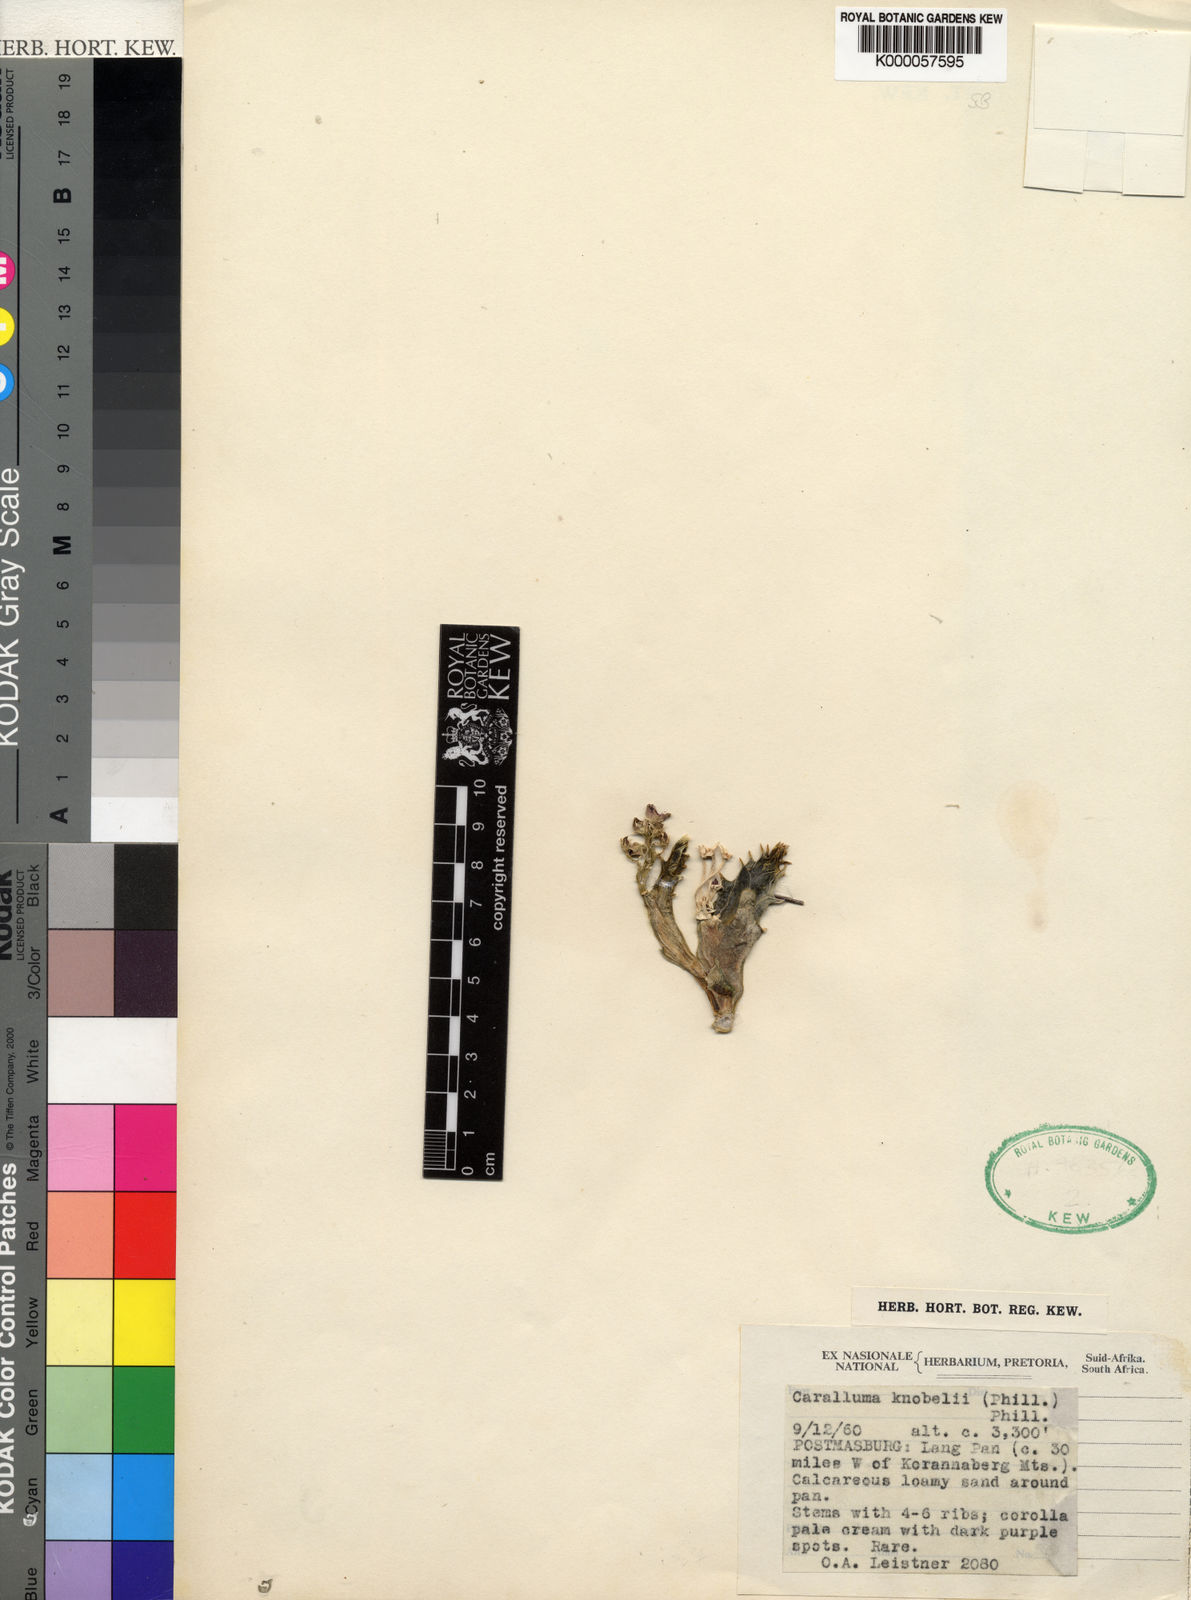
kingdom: Plantae
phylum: Tracheophyta
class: Magnoliopsida
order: Gentianales
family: Apocynaceae
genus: Ceropegia
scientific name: Ceropegia knobelii
